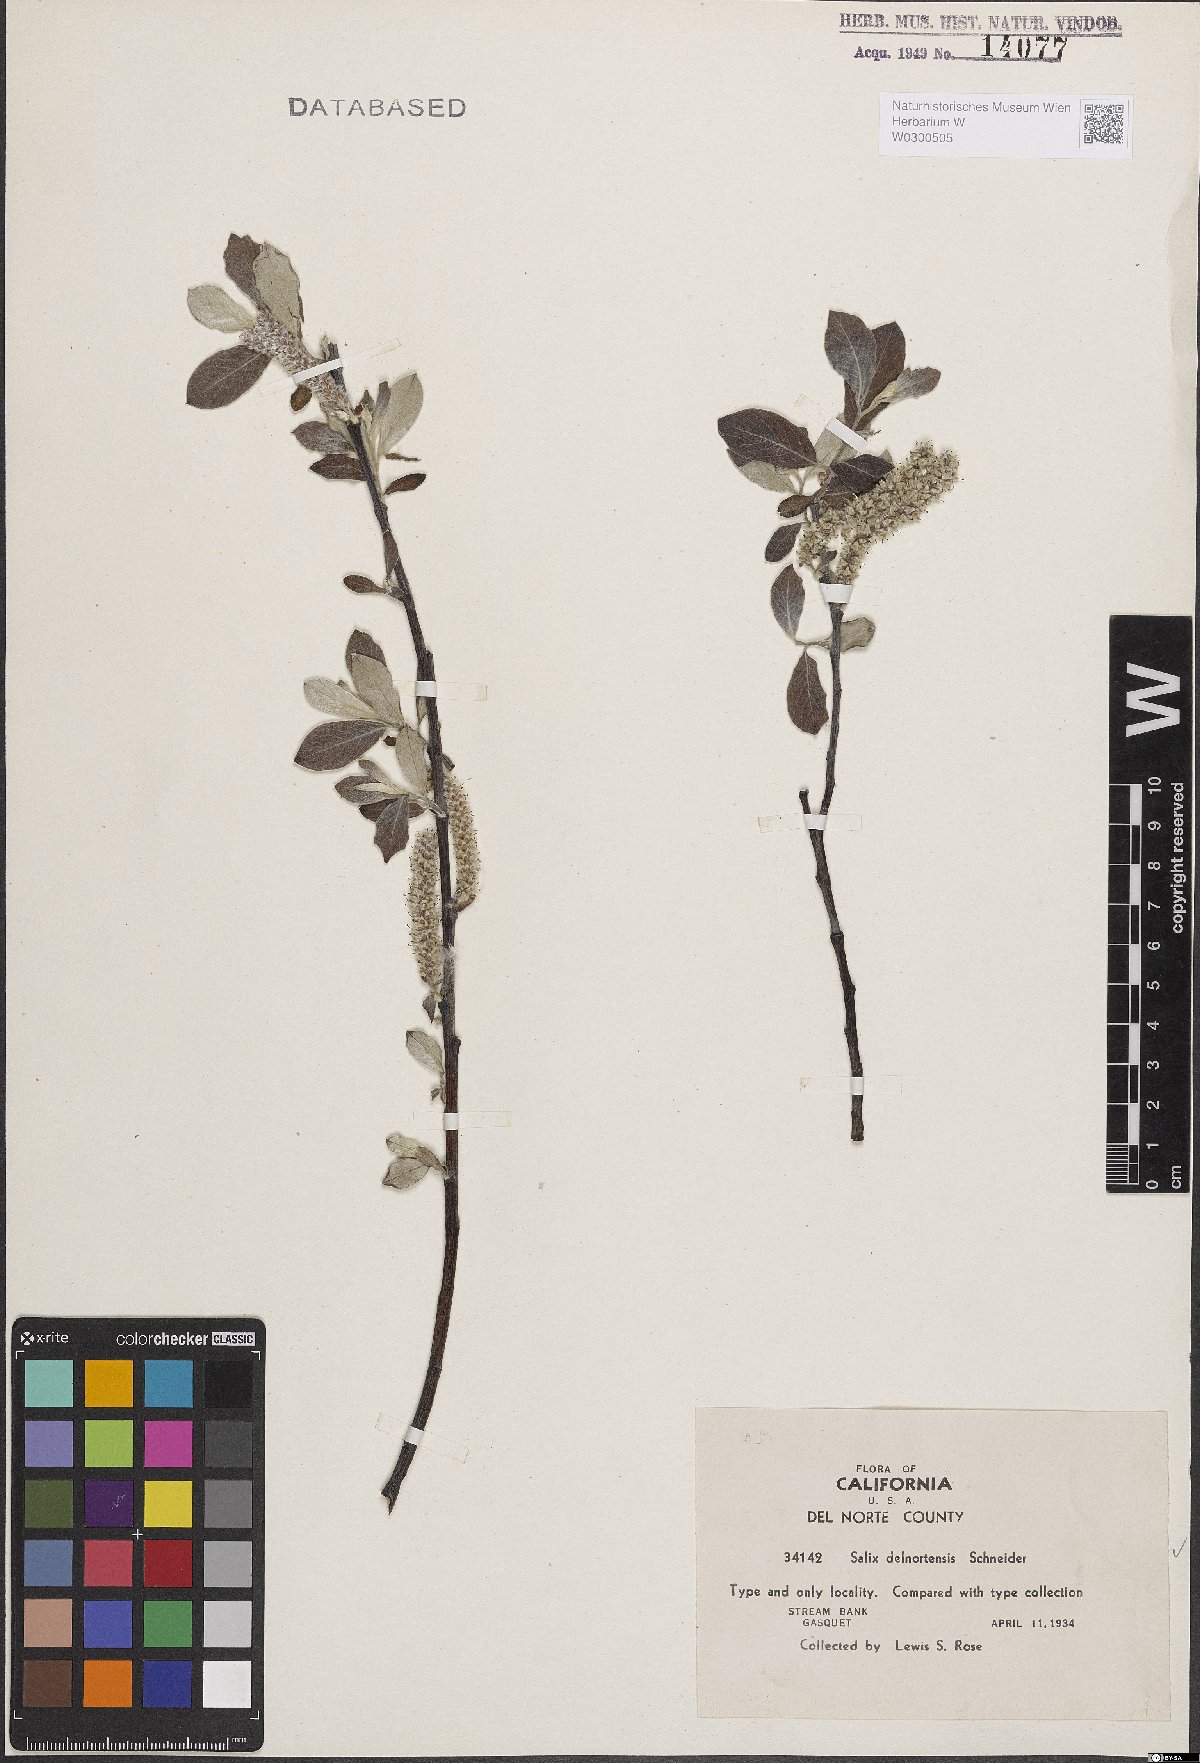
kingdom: Plantae
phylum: Tracheophyta
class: Magnoliopsida
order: Malpighiales
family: Salicaceae
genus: Salix
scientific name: Salix delnortensis
